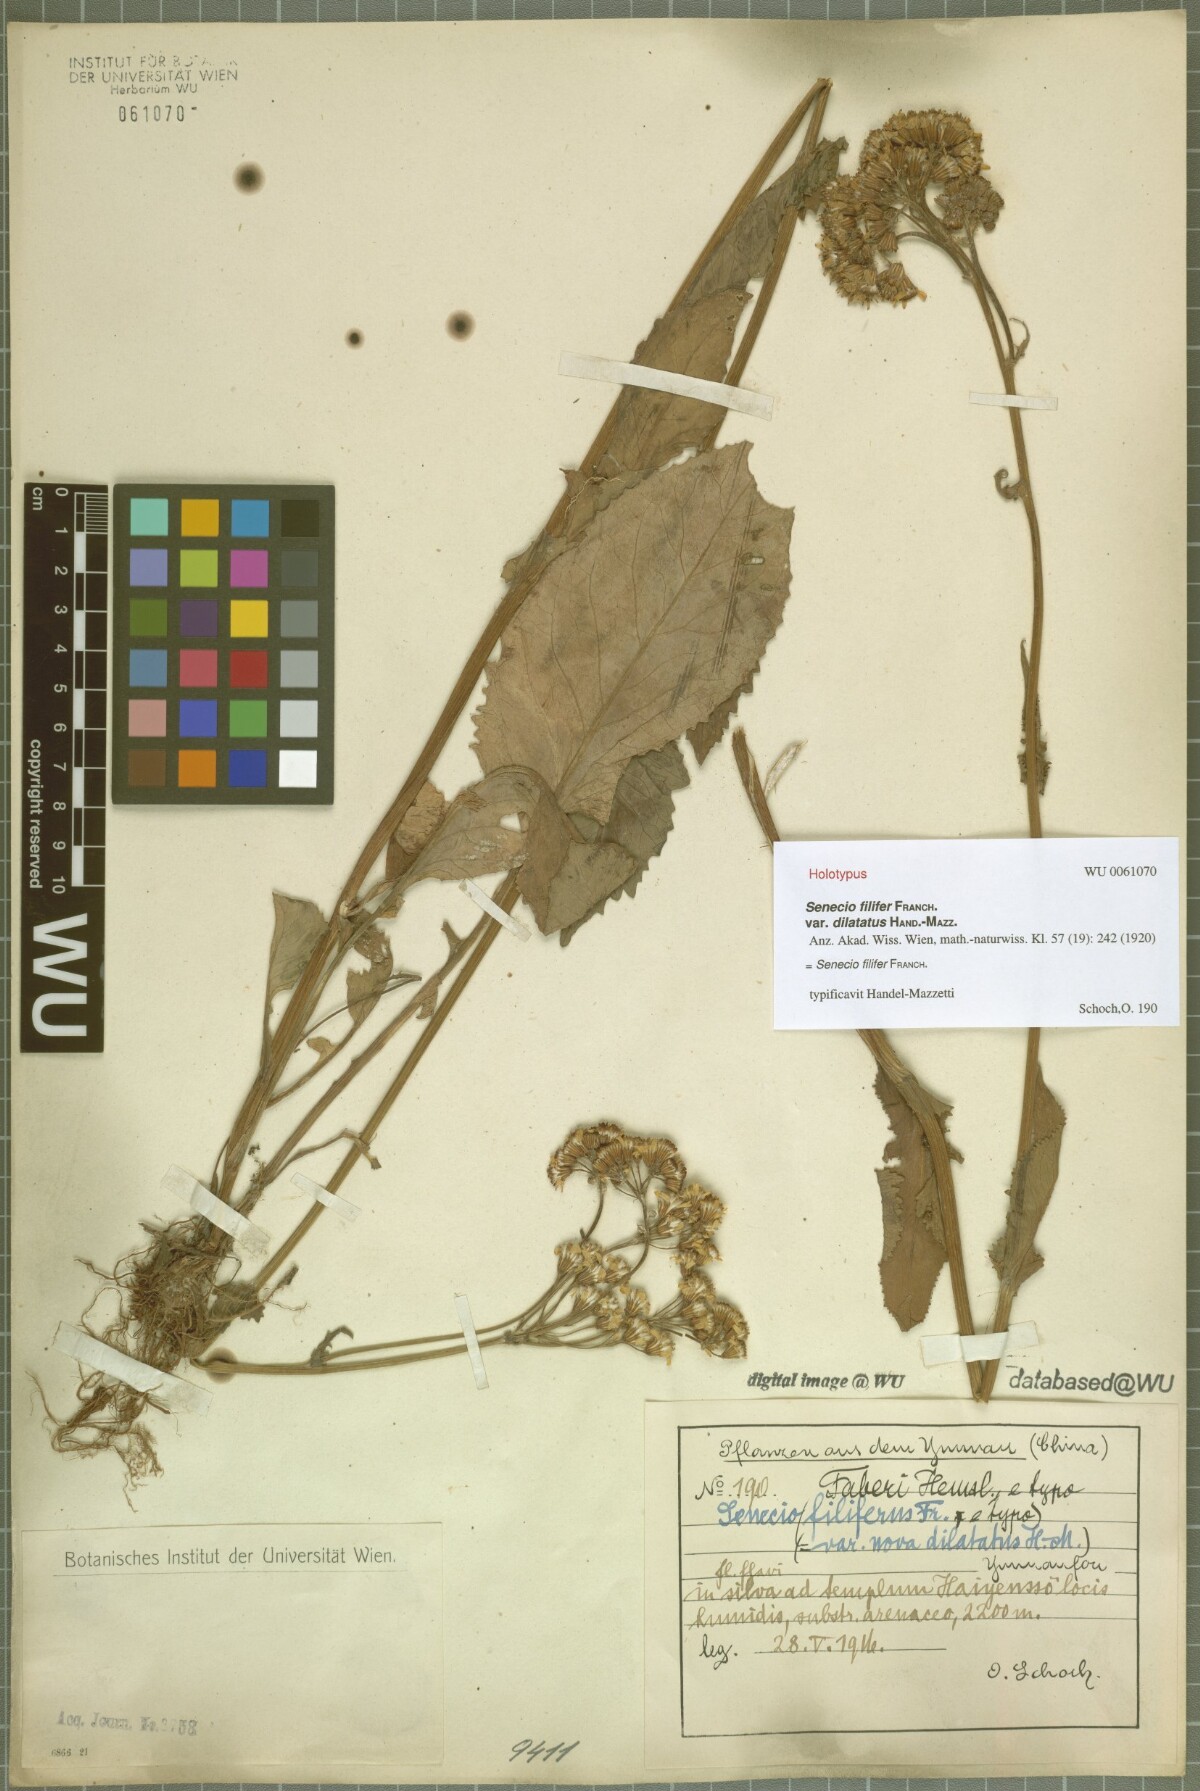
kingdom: Plantae
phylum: Tracheophyta
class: Magnoliopsida
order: Asterales
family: Asteraceae
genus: Senecio
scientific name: Senecio filifer
